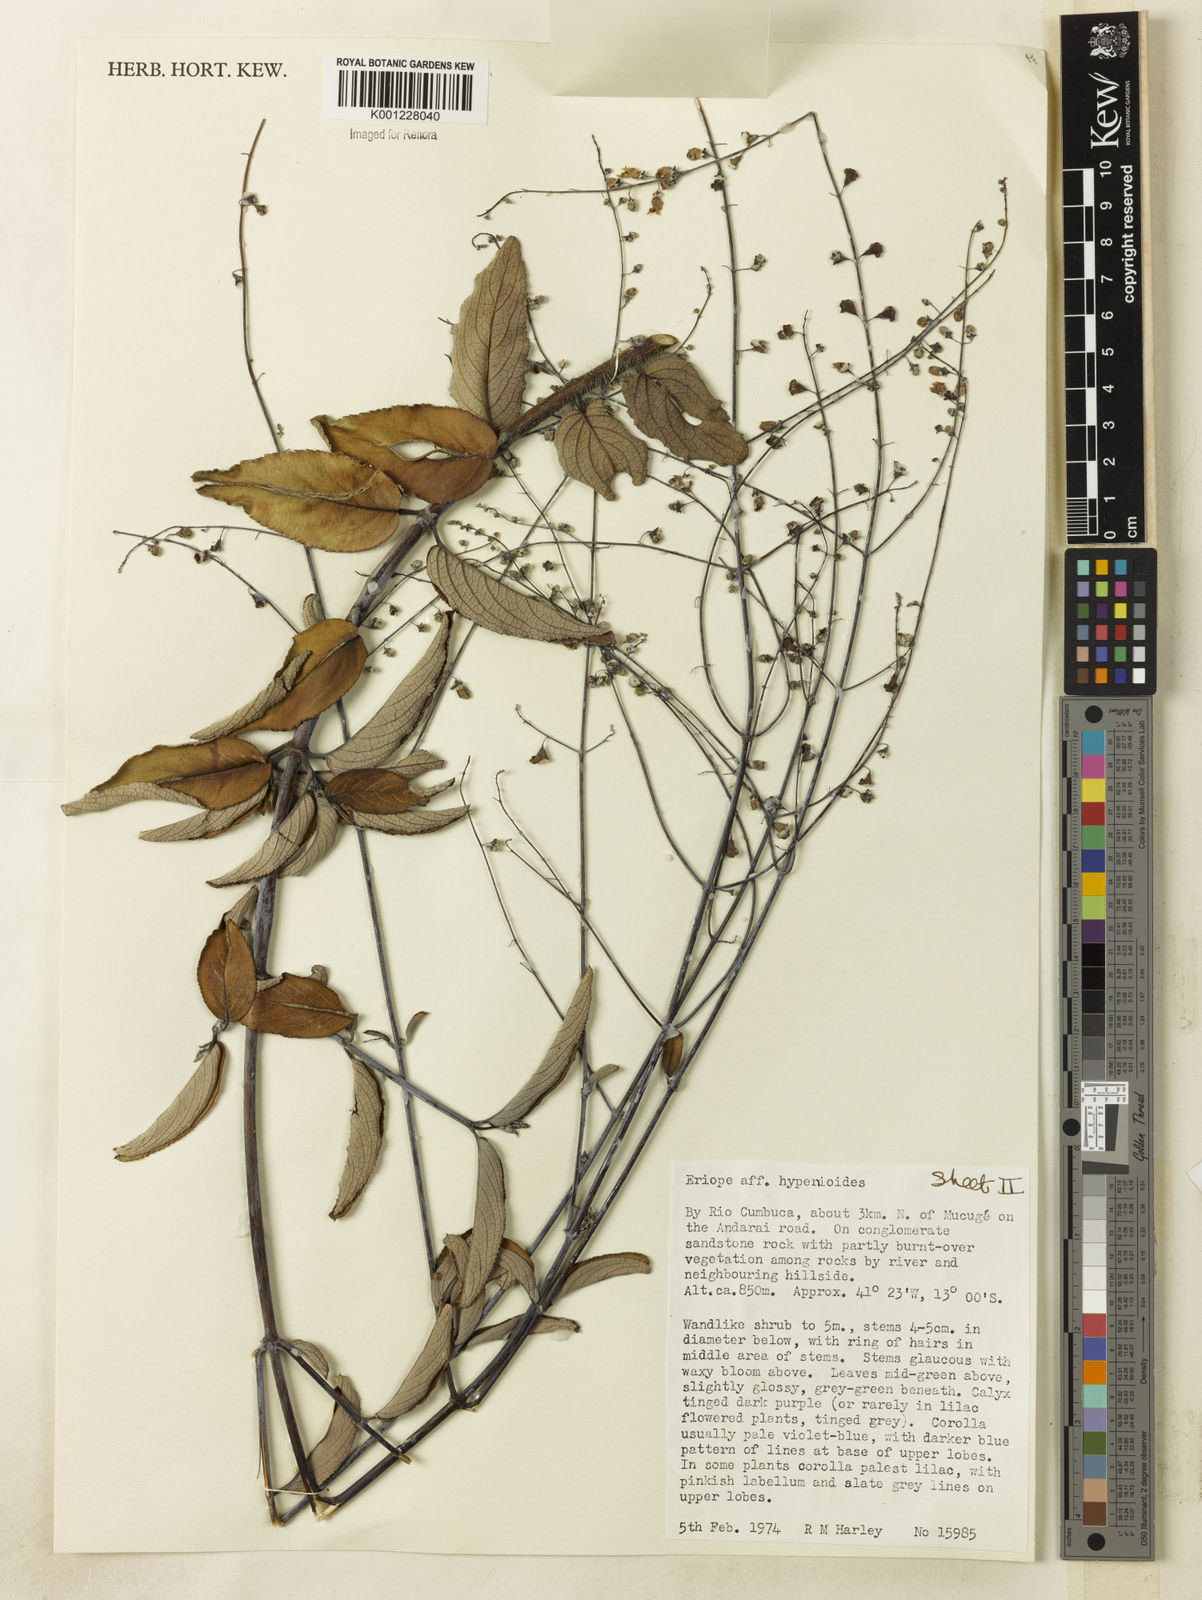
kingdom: Plantae
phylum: Tracheophyta
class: Magnoliopsida
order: Lamiales
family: Lamiaceae
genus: Eriope
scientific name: Eriope hypenioides
